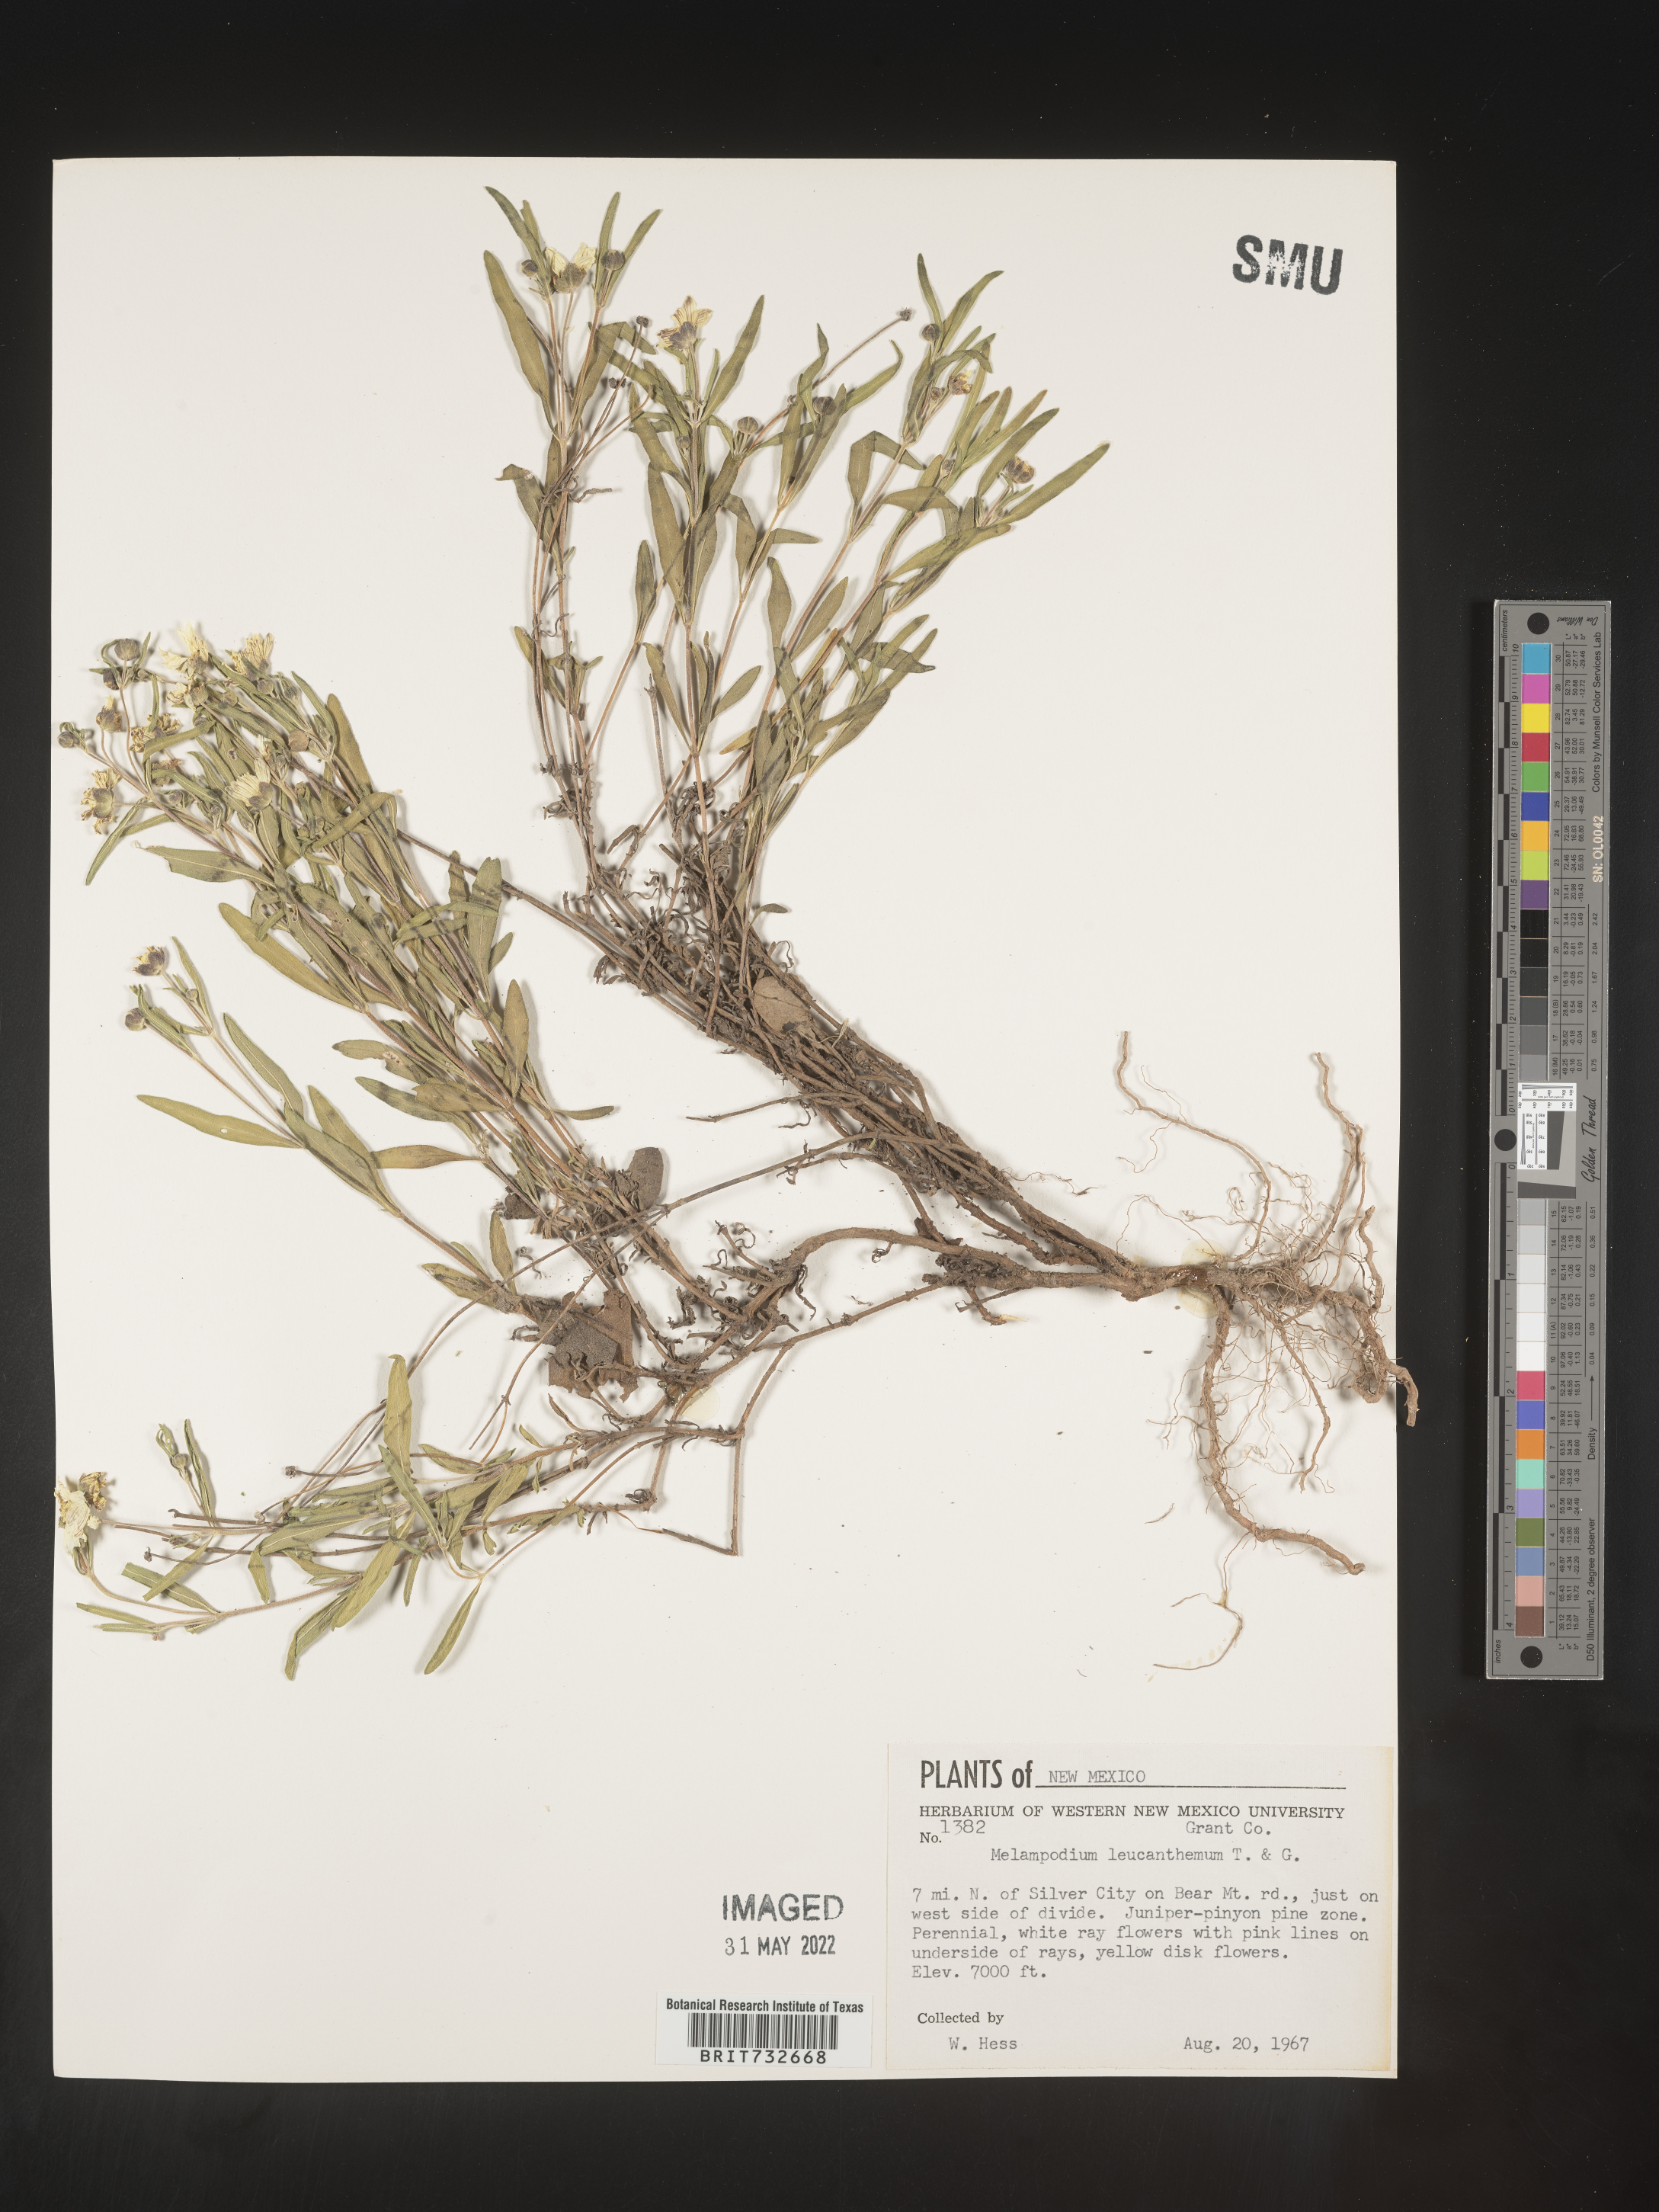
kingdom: Plantae
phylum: Tracheophyta
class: Magnoliopsida
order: Asterales
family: Asteraceae
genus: Melampodium
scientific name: Melampodium leucanthum
